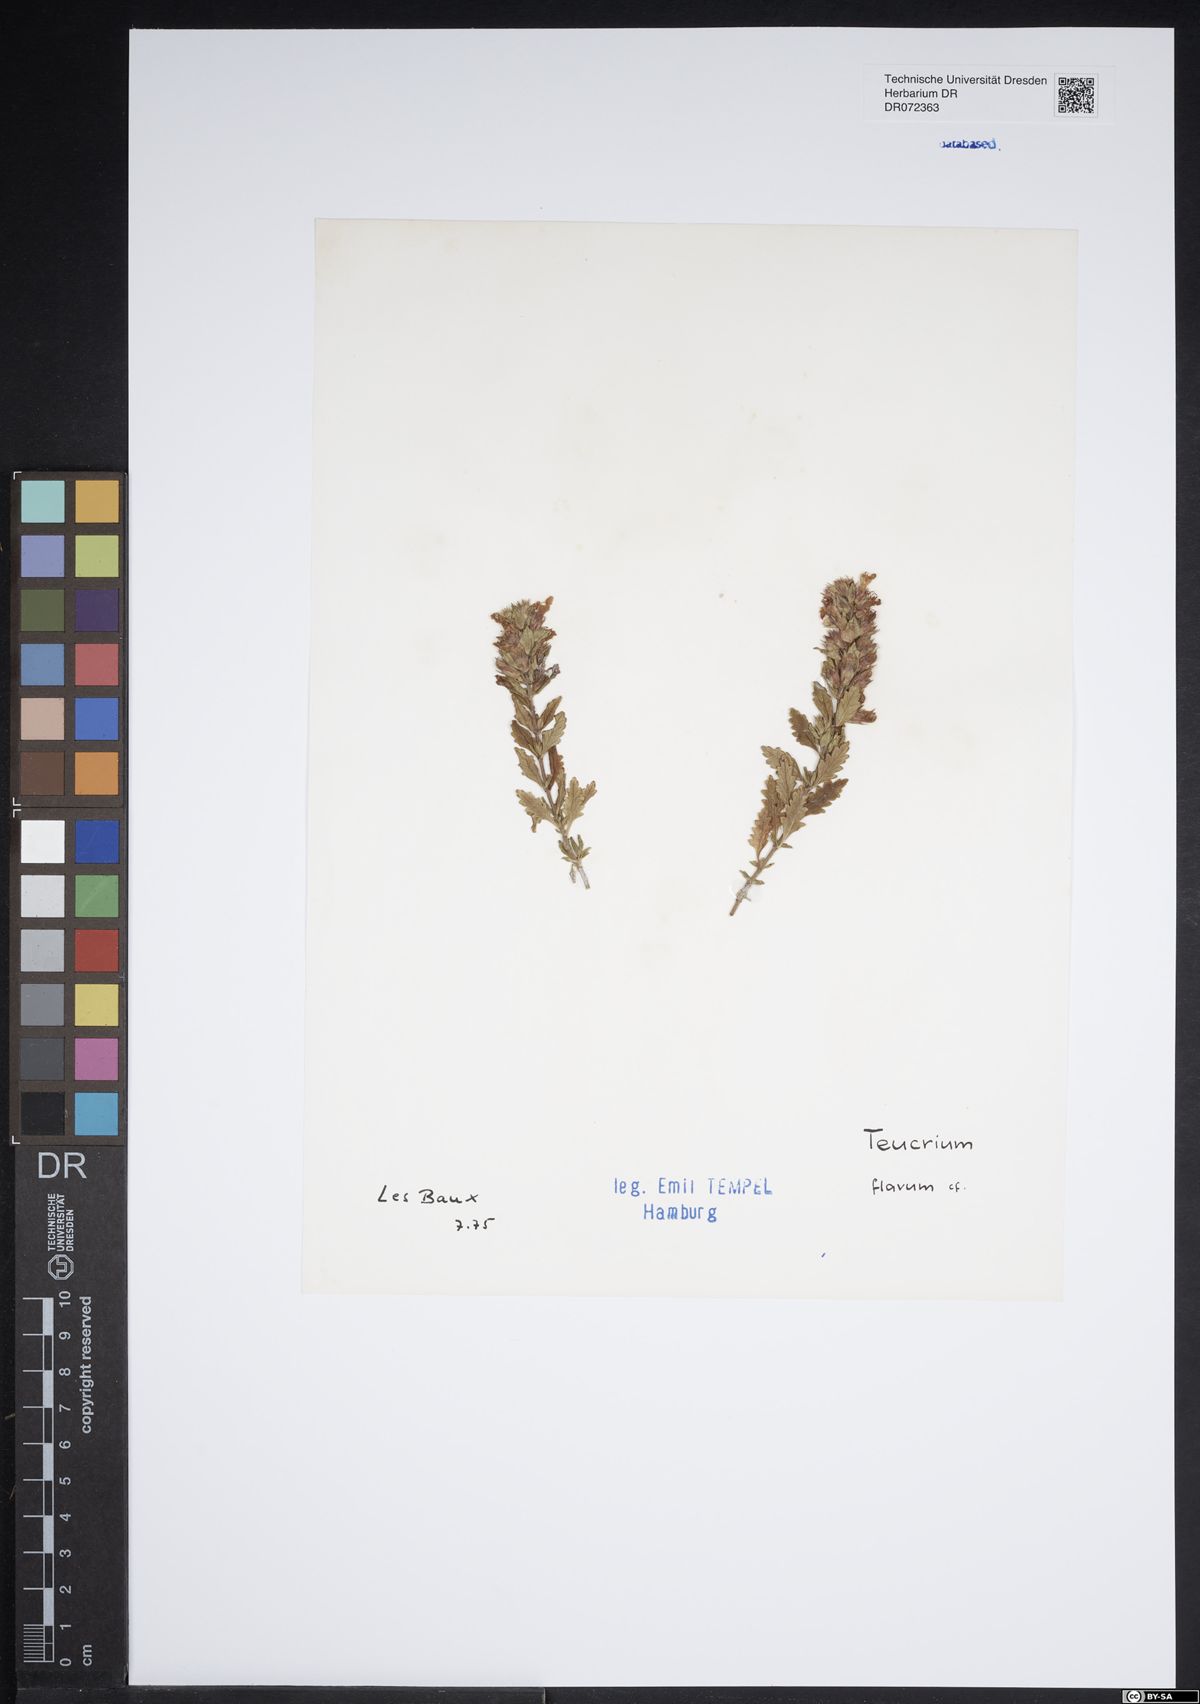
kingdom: Plantae
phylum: Tracheophyta
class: Magnoliopsida
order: Lamiales
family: Lamiaceae
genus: Teucrium
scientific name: Teucrium flavum
